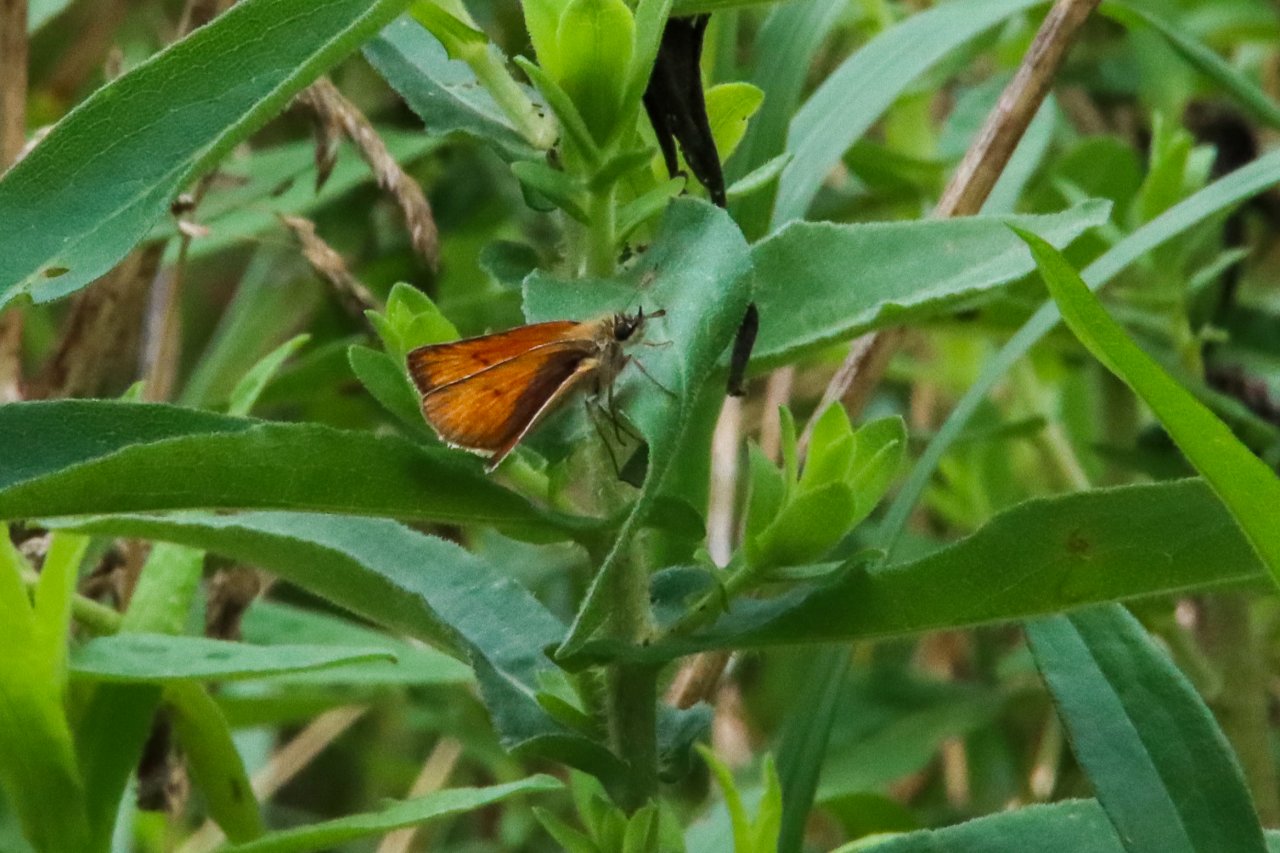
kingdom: Animalia
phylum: Arthropoda
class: Insecta
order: Lepidoptera
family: Hesperiidae
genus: Thymelicus
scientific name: Thymelicus lineola
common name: European Skipper
